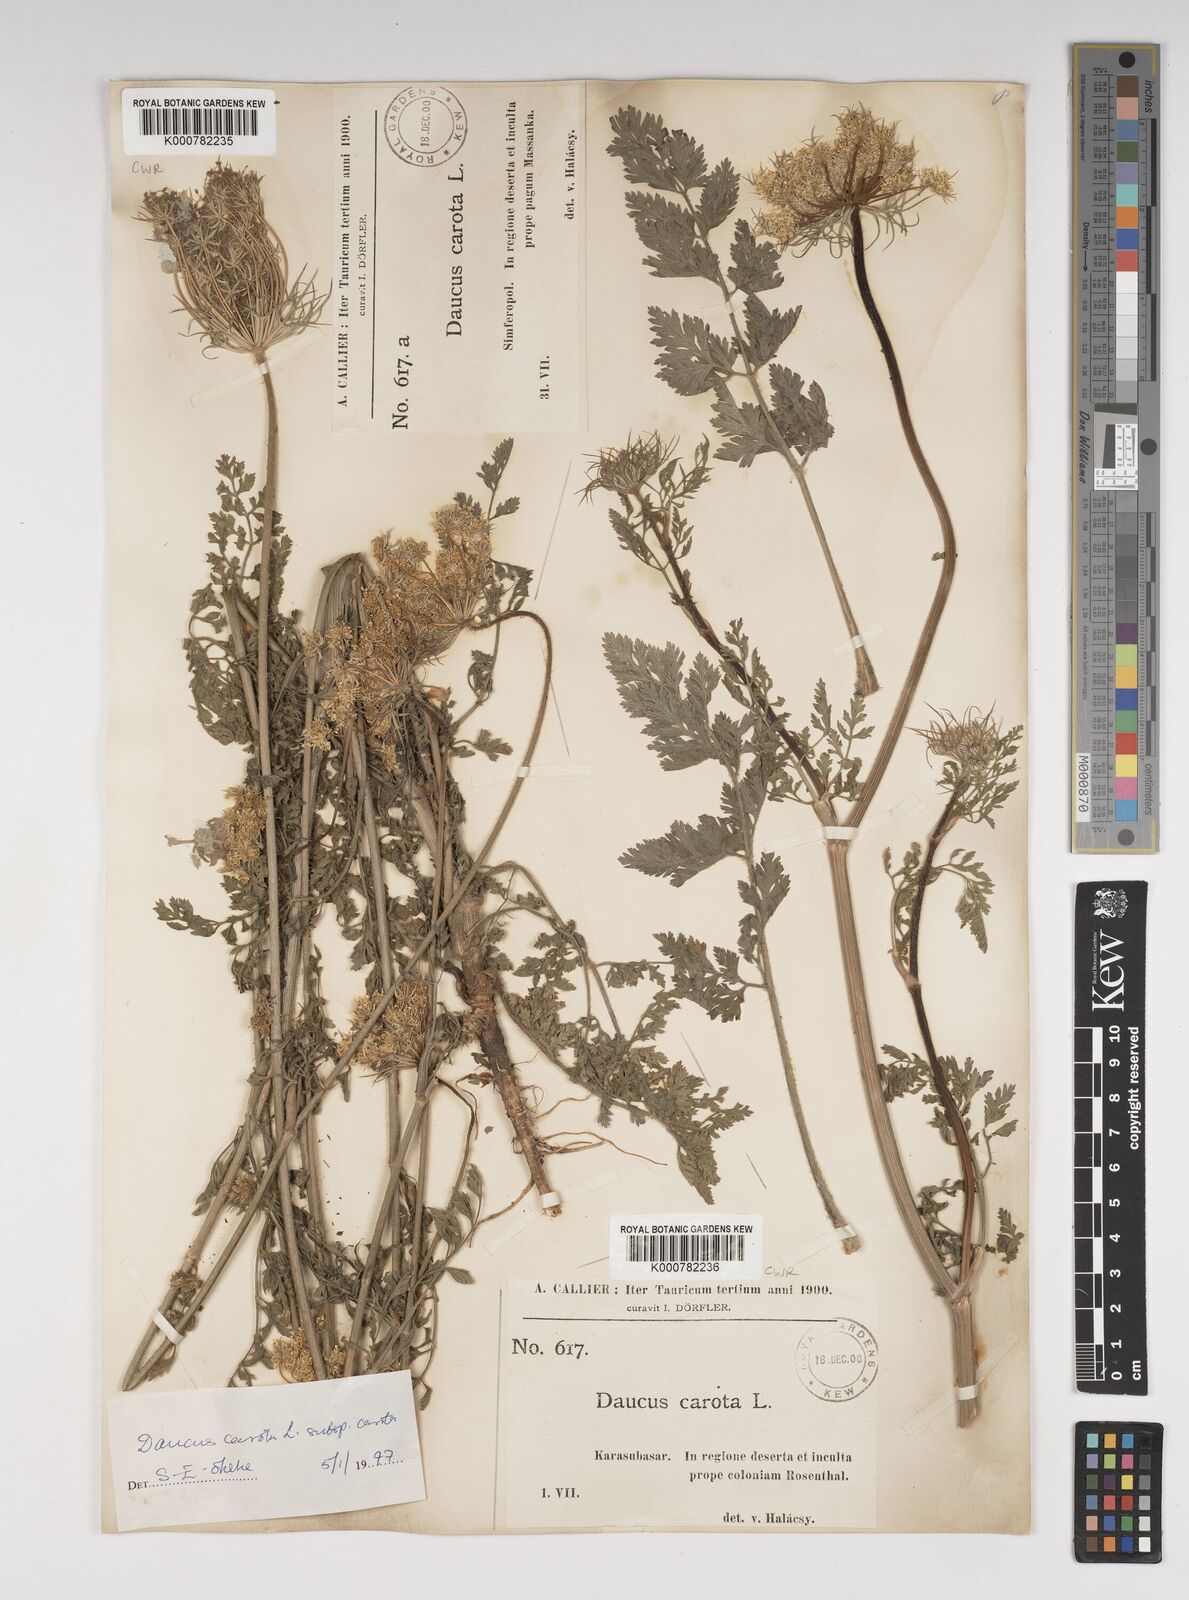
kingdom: Plantae
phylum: Tracheophyta
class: Magnoliopsida
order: Apiales
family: Apiaceae
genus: Daucus
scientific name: Daucus carota
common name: Wild carrot
